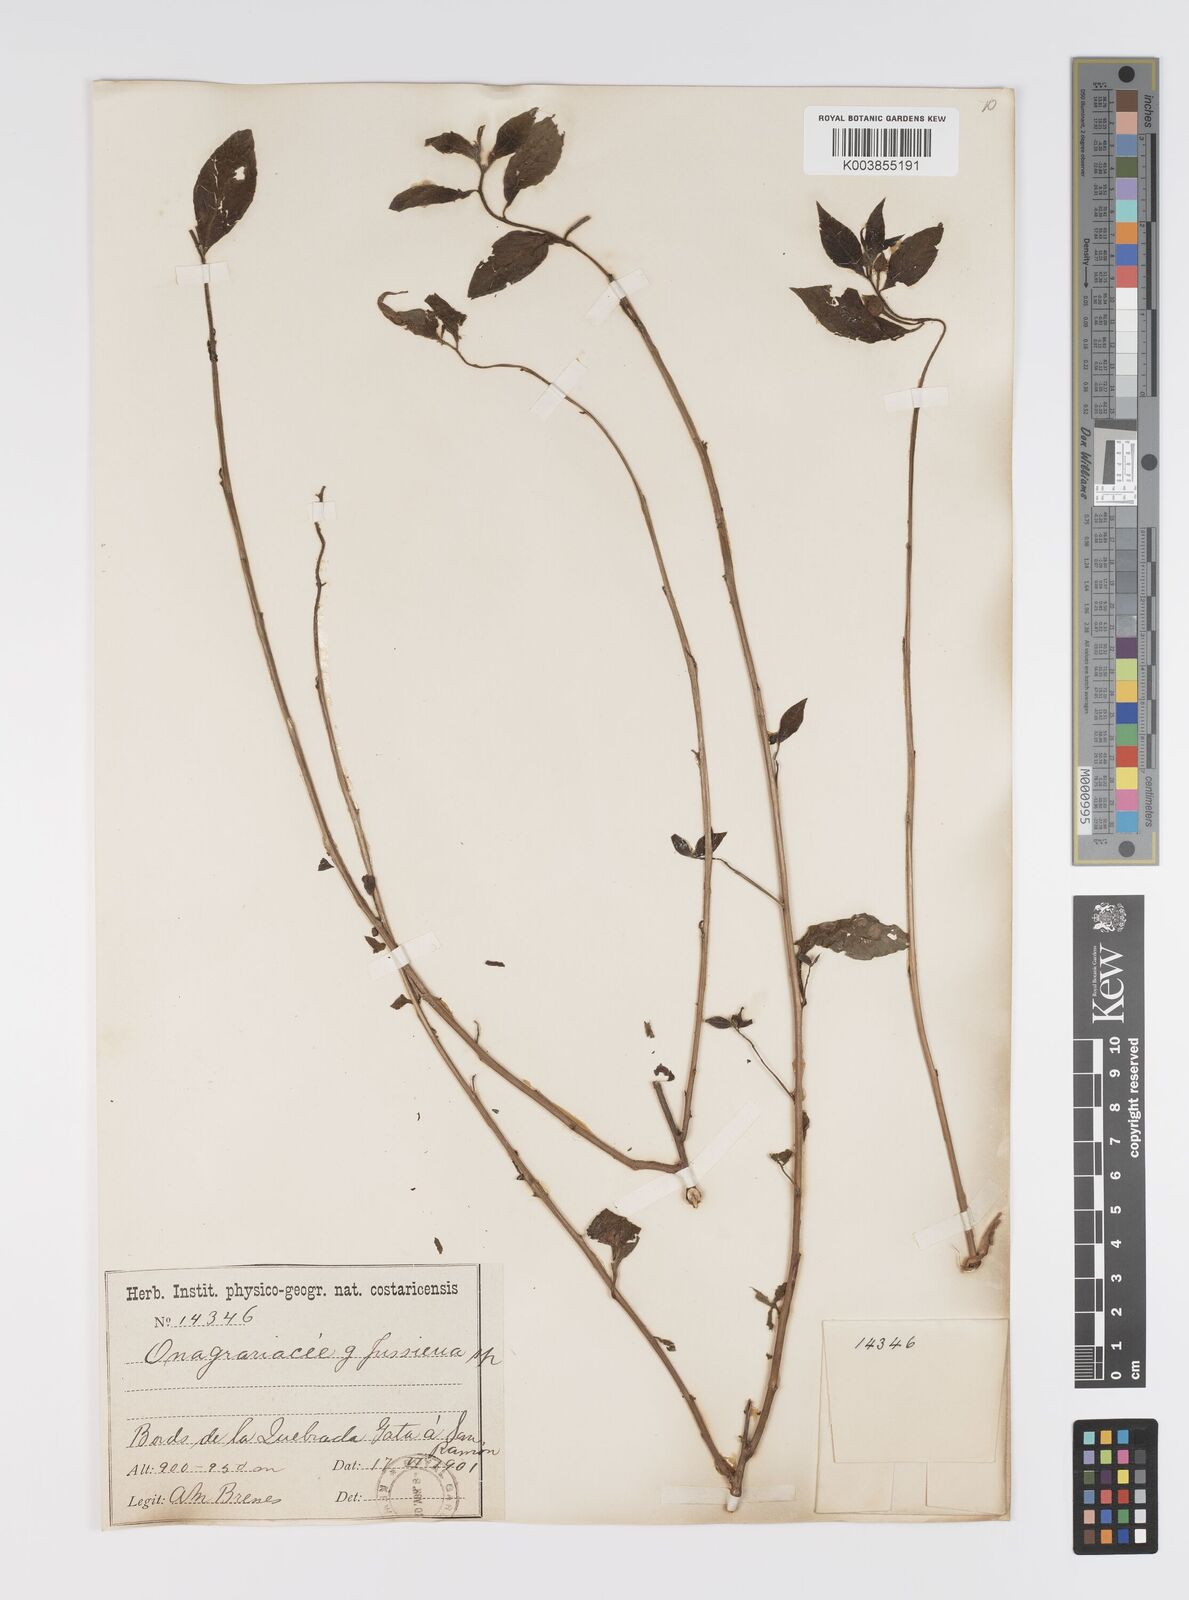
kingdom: Plantae
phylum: Tracheophyta
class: Magnoliopsida
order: Myrtales
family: Onagraceae
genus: Ludwigia
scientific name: Ludwigia
